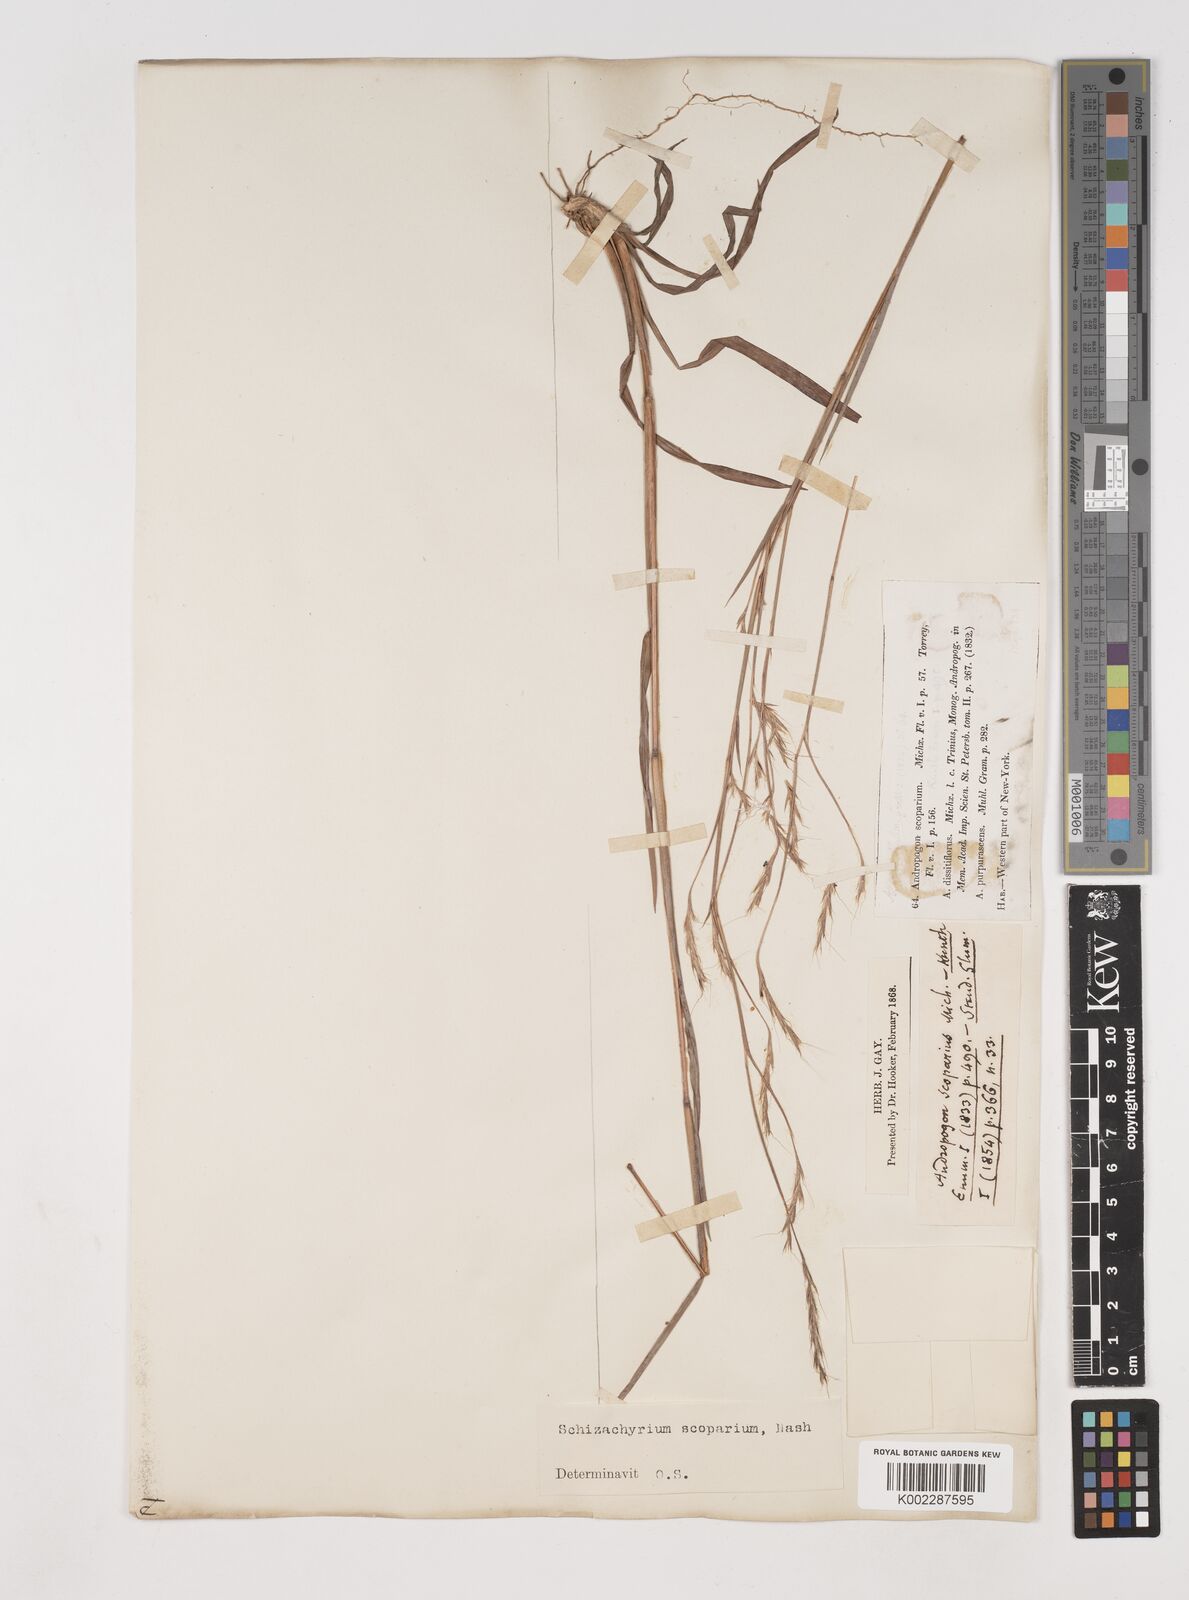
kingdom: Plantae
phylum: Tracheophyta
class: Liliopsida
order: Poales
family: Poaceae
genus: Schizachyrium
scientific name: Schizachyrium scoparium
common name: Little bluestem
